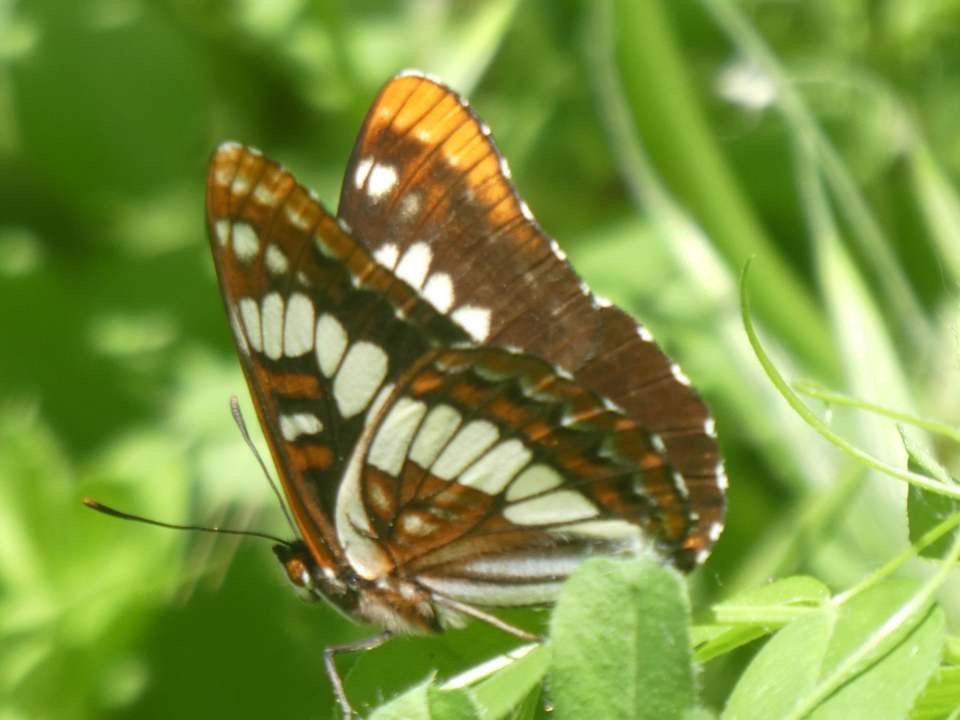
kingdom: Animalia
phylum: Arthropoda
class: Insecta
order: Lepidoptera
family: Nymphalidae
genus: Limenitis
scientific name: Limenitis lorquini
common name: Lorquin's Admiral
